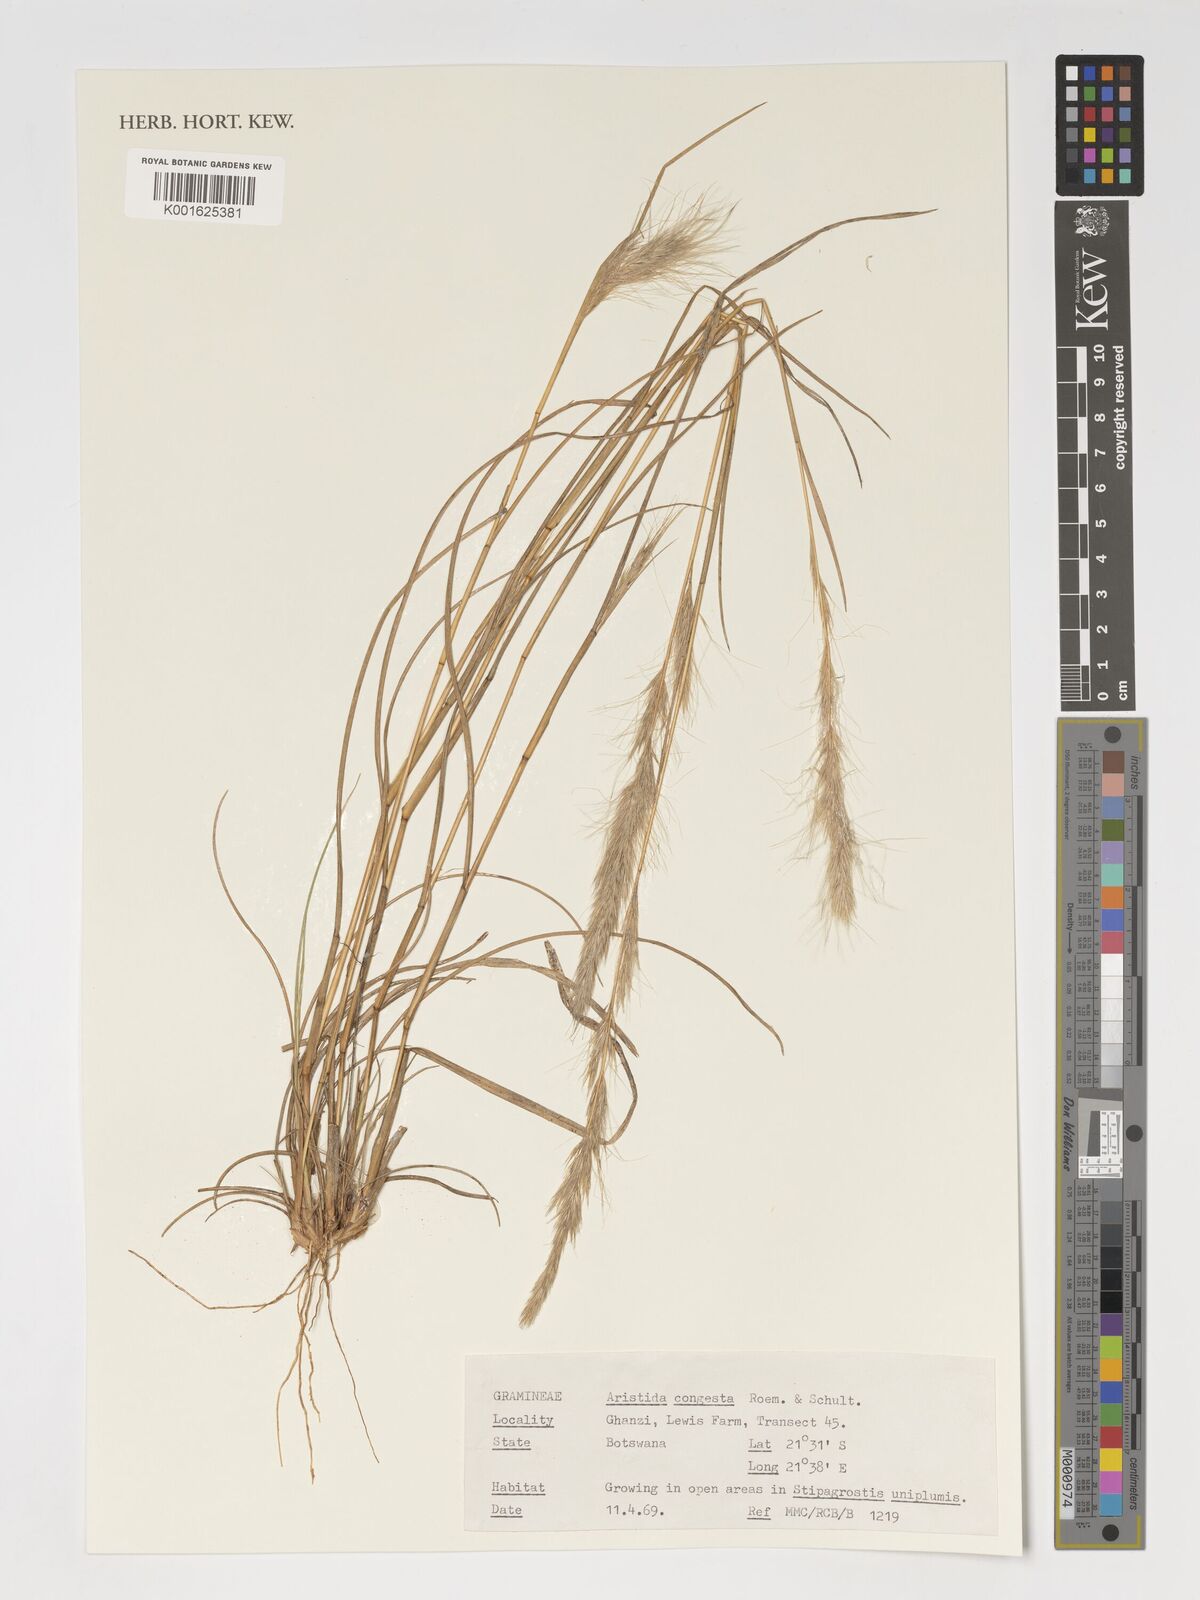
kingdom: Plantae
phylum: Tracheophyta
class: Liliopsida
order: Poales
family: Poaceae
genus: Aristida
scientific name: Aristida congesta
